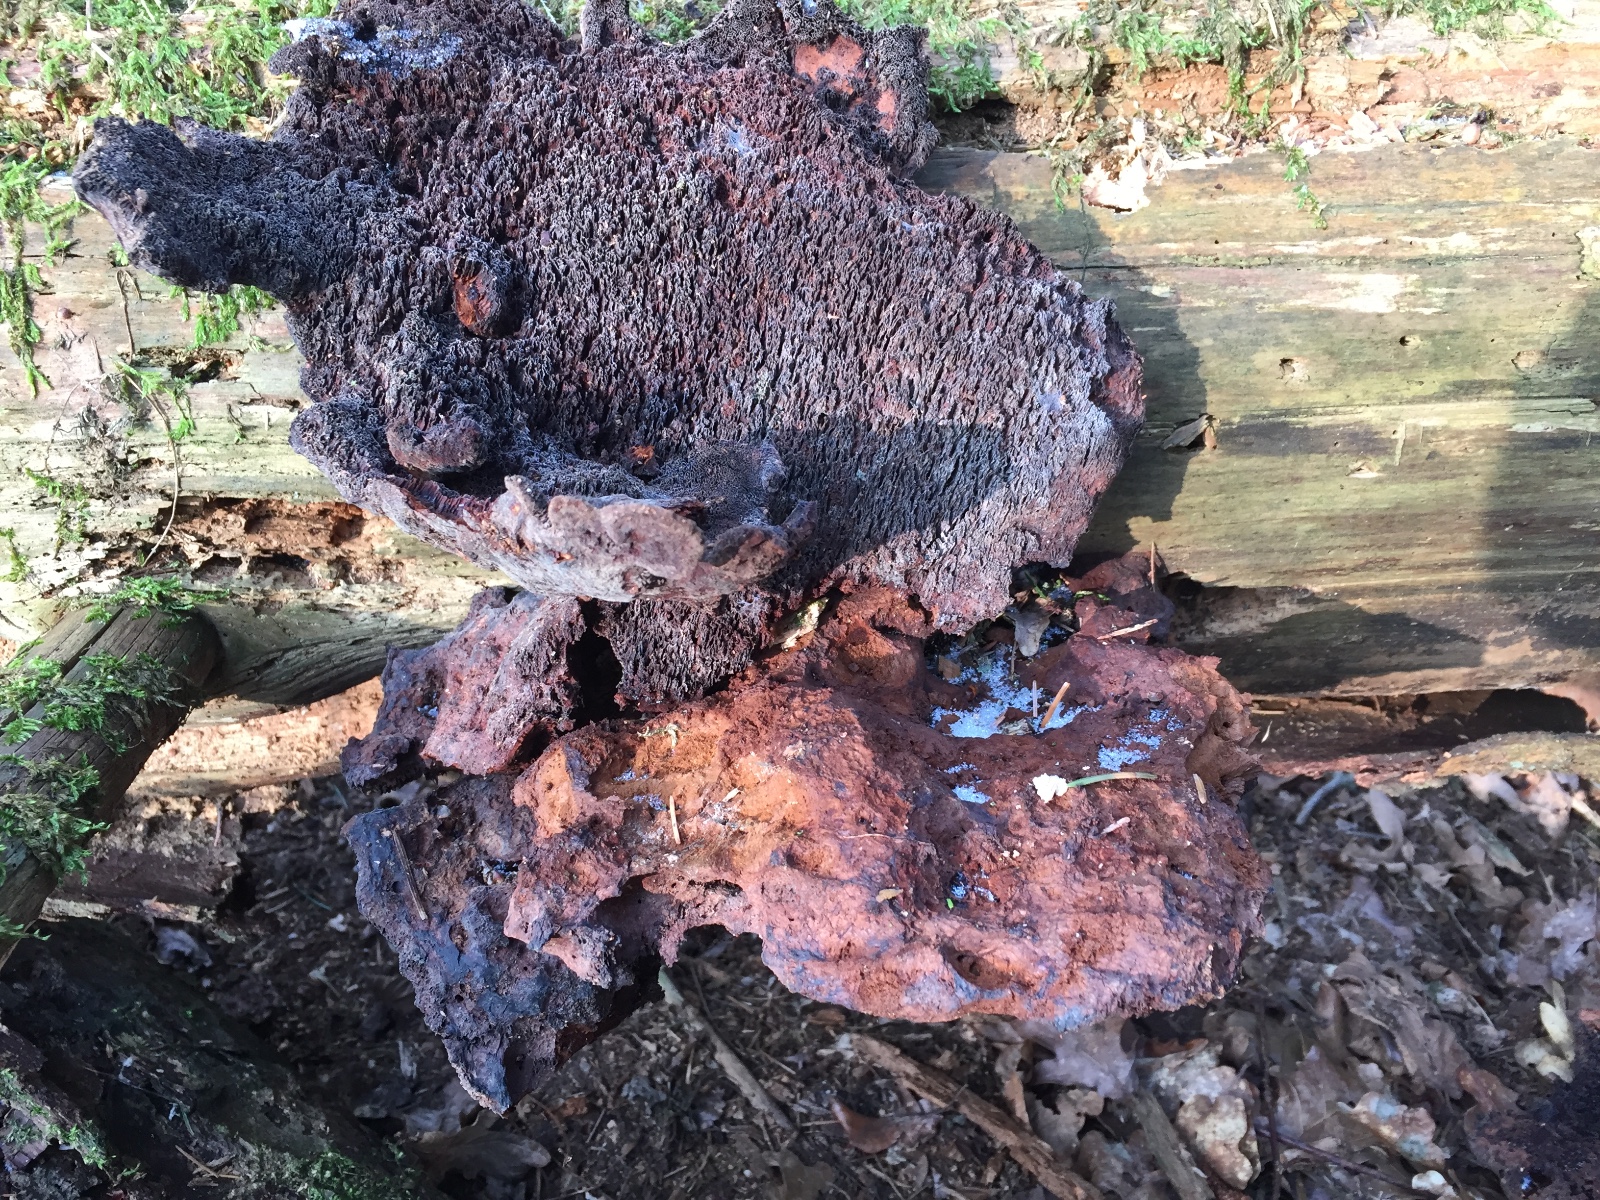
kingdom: Fungi
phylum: Basidiomycota
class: Agaricomycetes
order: Polyporales
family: Laetiporaceae
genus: Phaeolus
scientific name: Phaeolus schweinitzii
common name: brunporesvamp
